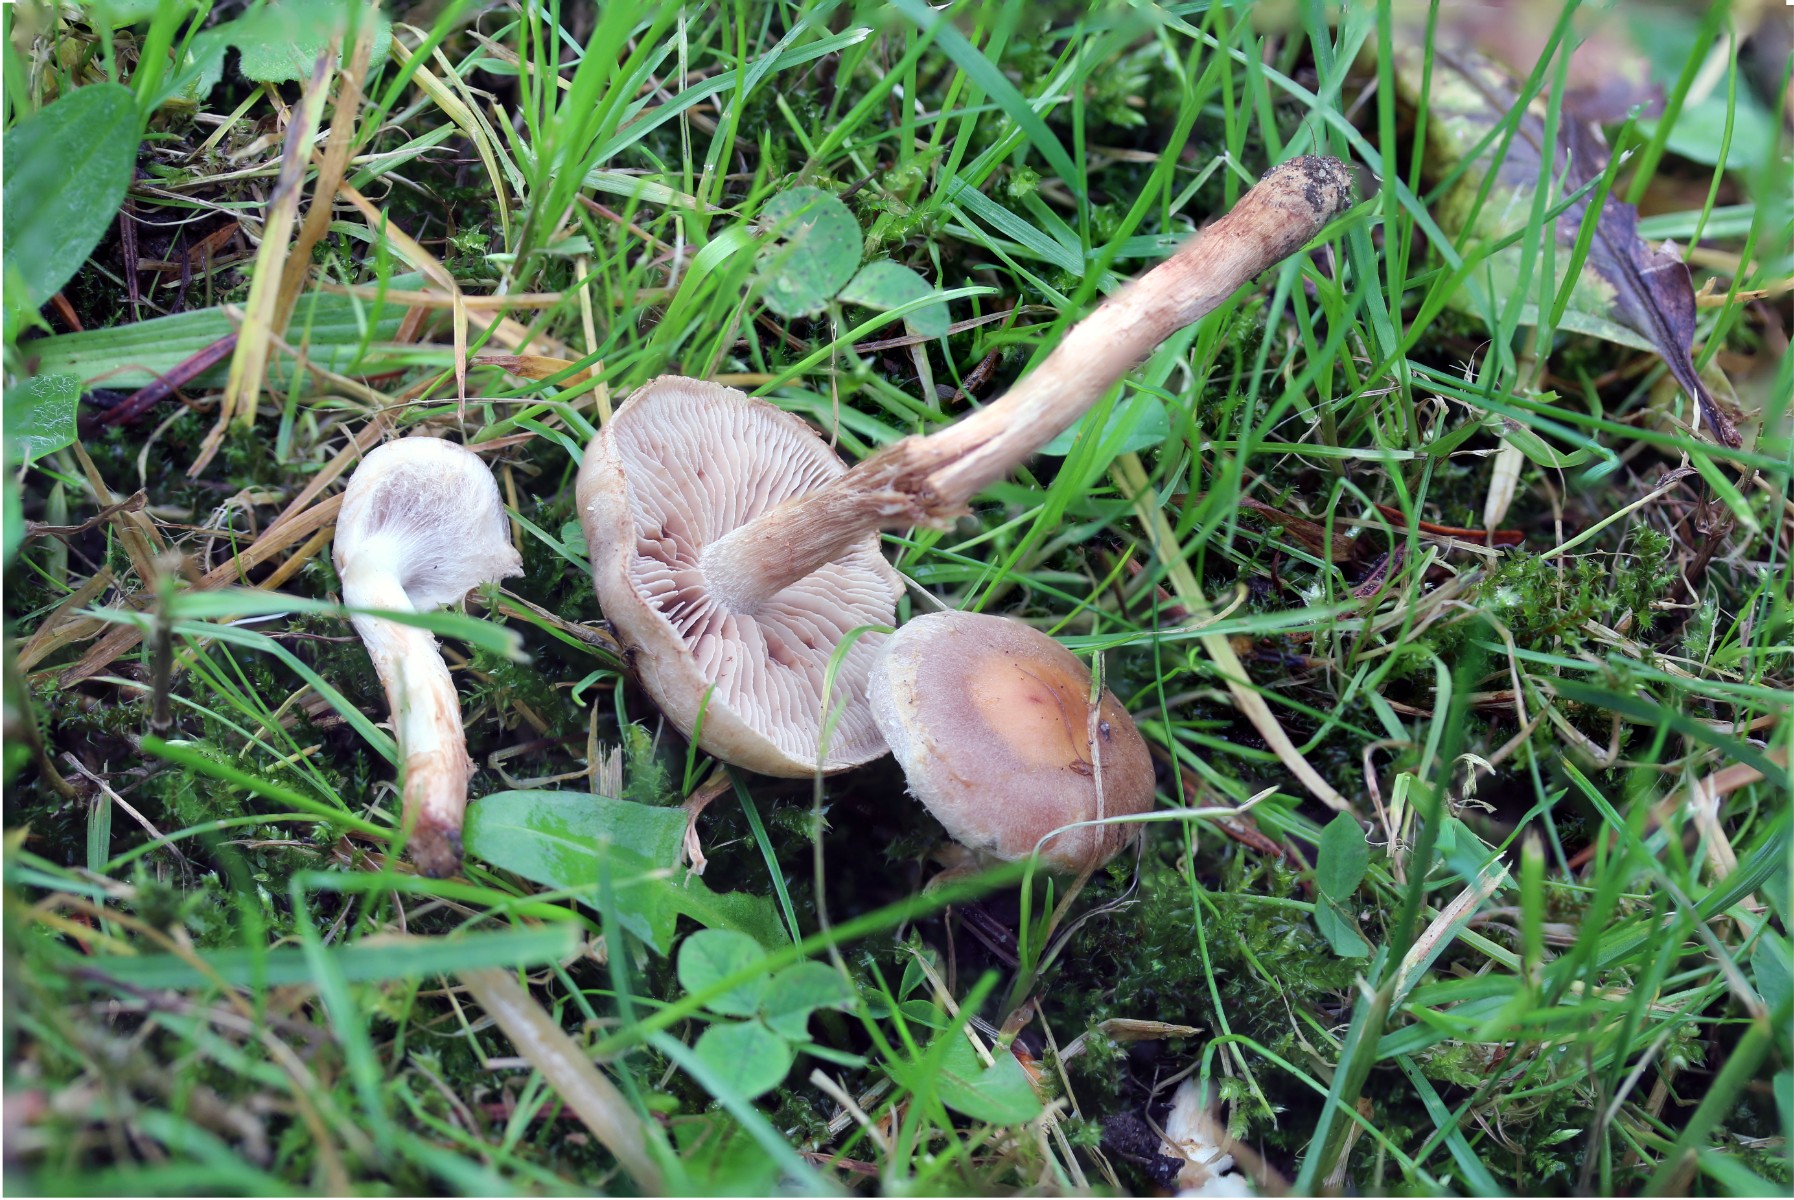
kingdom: Fungi
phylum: Basidiomycota
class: Agaricomycetes
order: Agaricales
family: Hymenogastraceae
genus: Hebeloma
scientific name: Hebeloma mesophaeum
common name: lerbrun tåreblad
